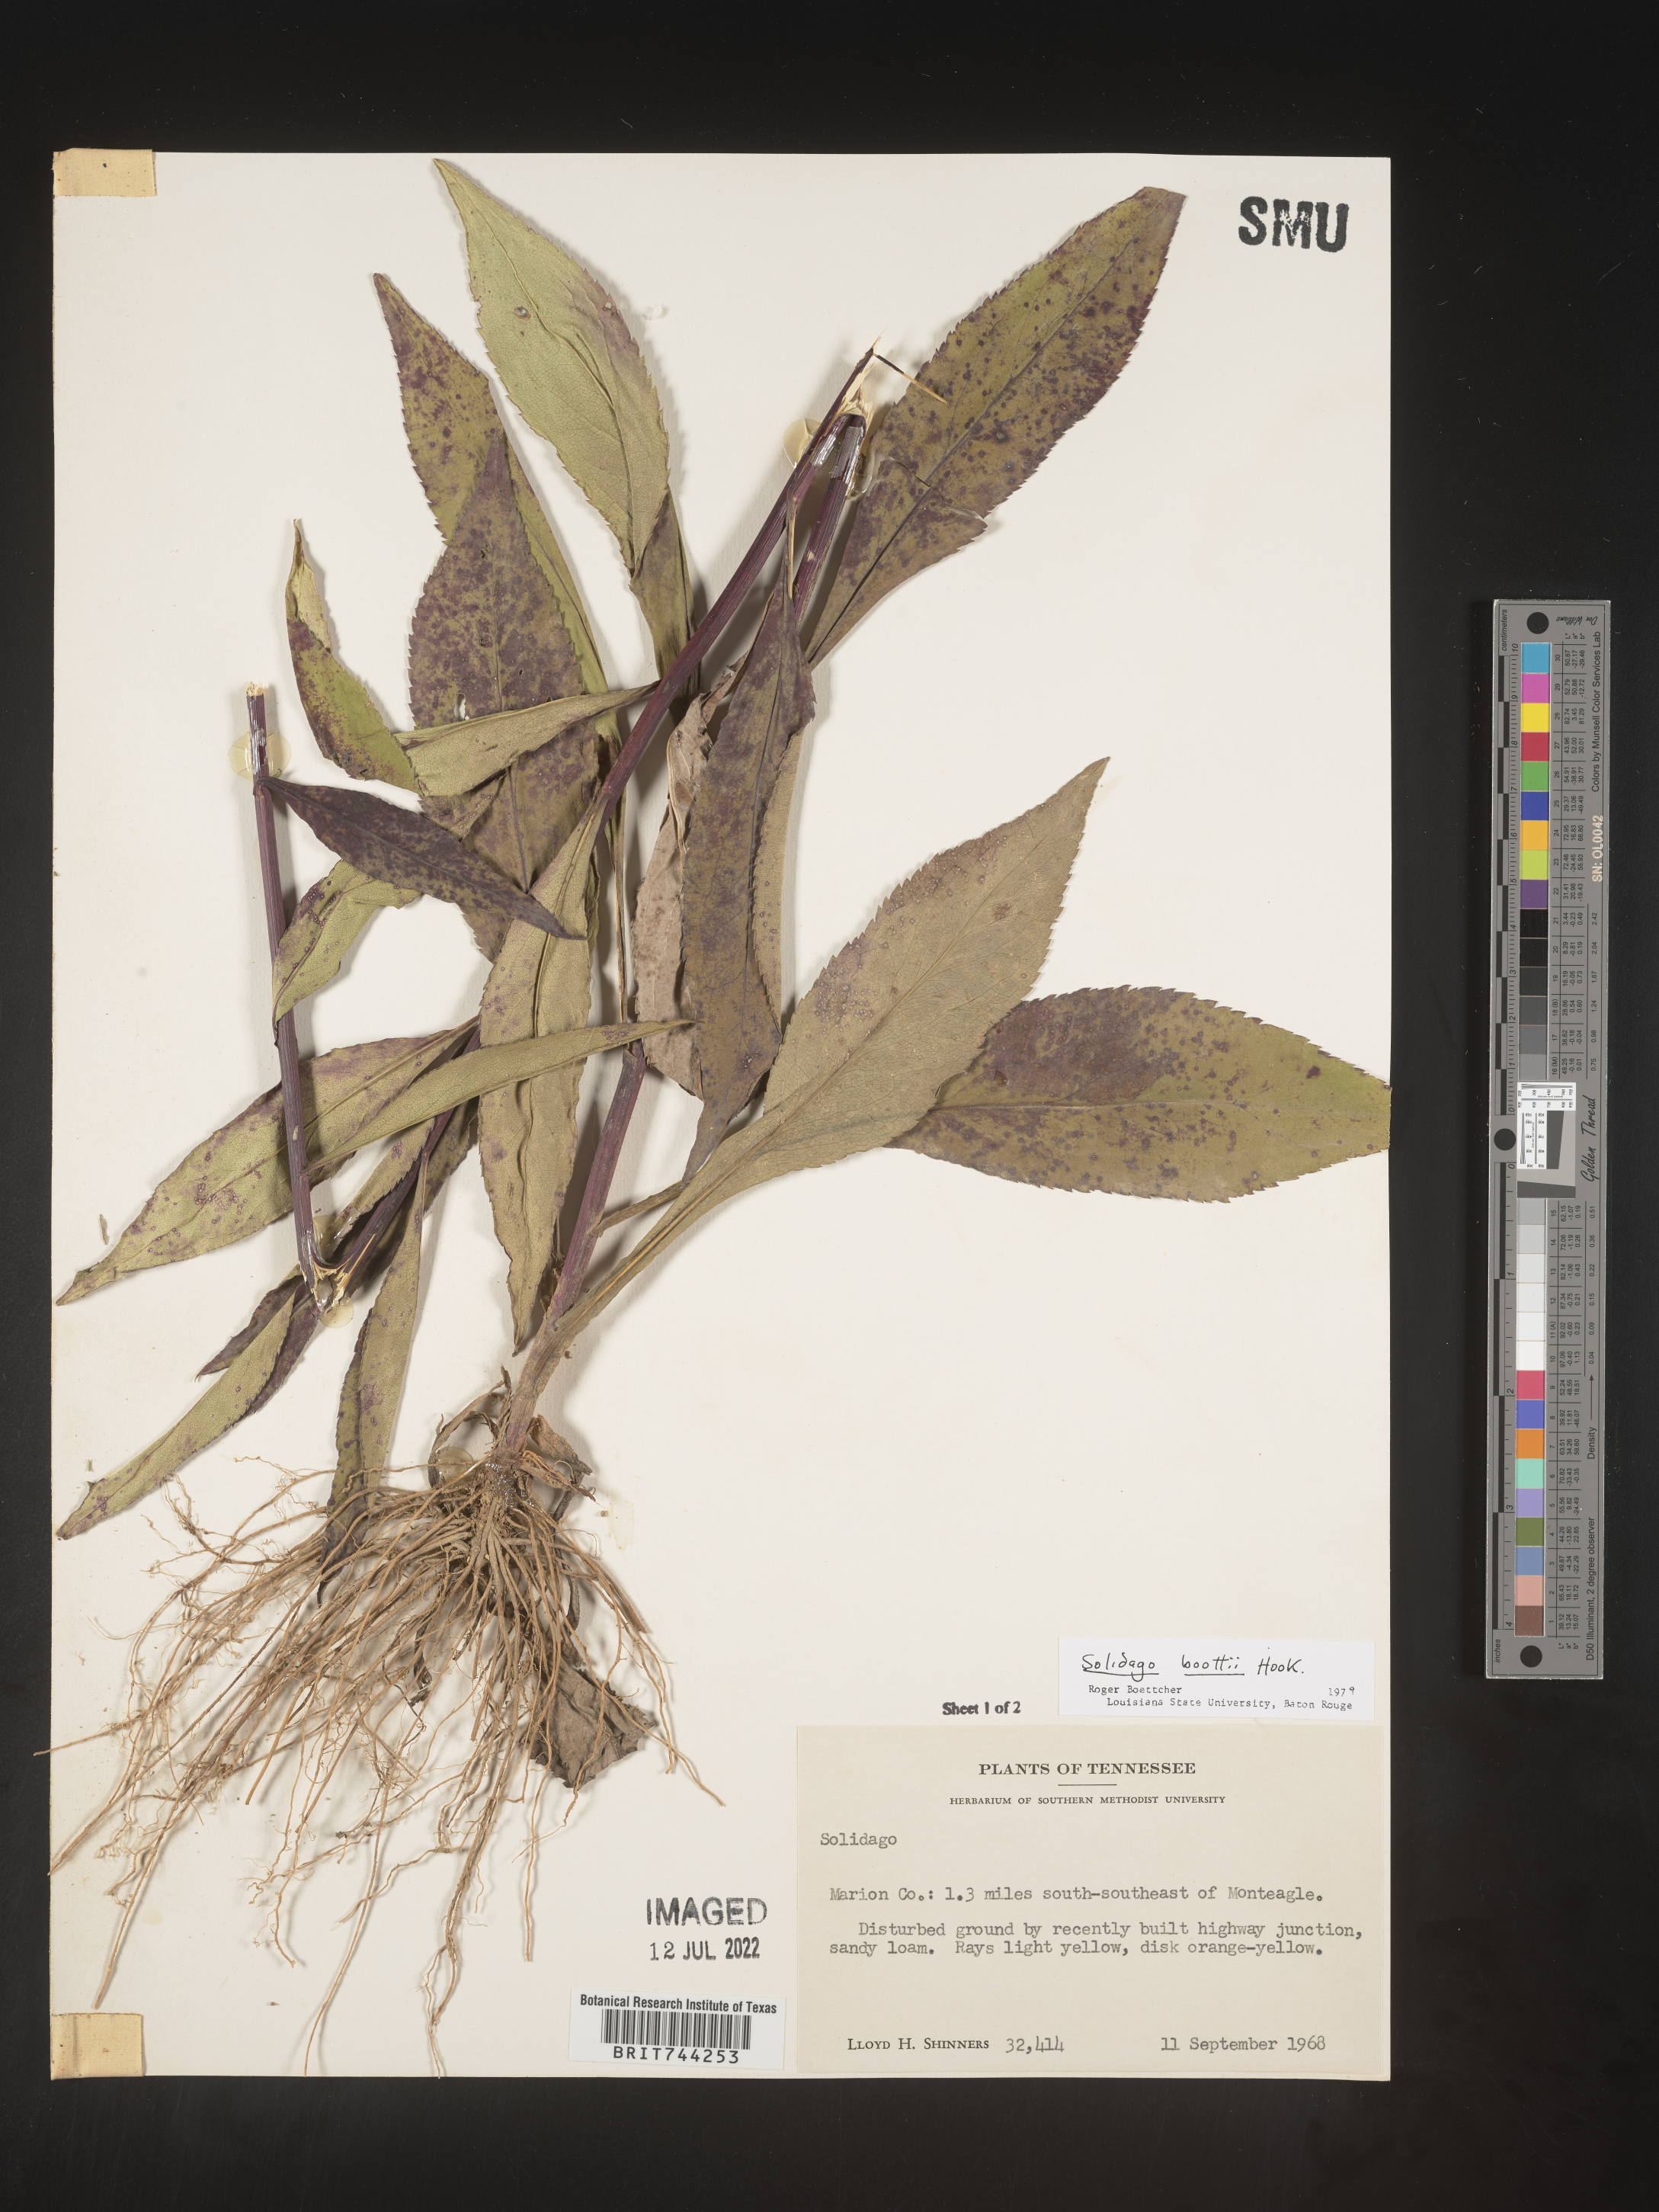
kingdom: Plantae
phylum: Tracheophyta
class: Magnoliopsida
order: Asterales
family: Asteraceae
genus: Solidago
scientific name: Solidago vaseyi
